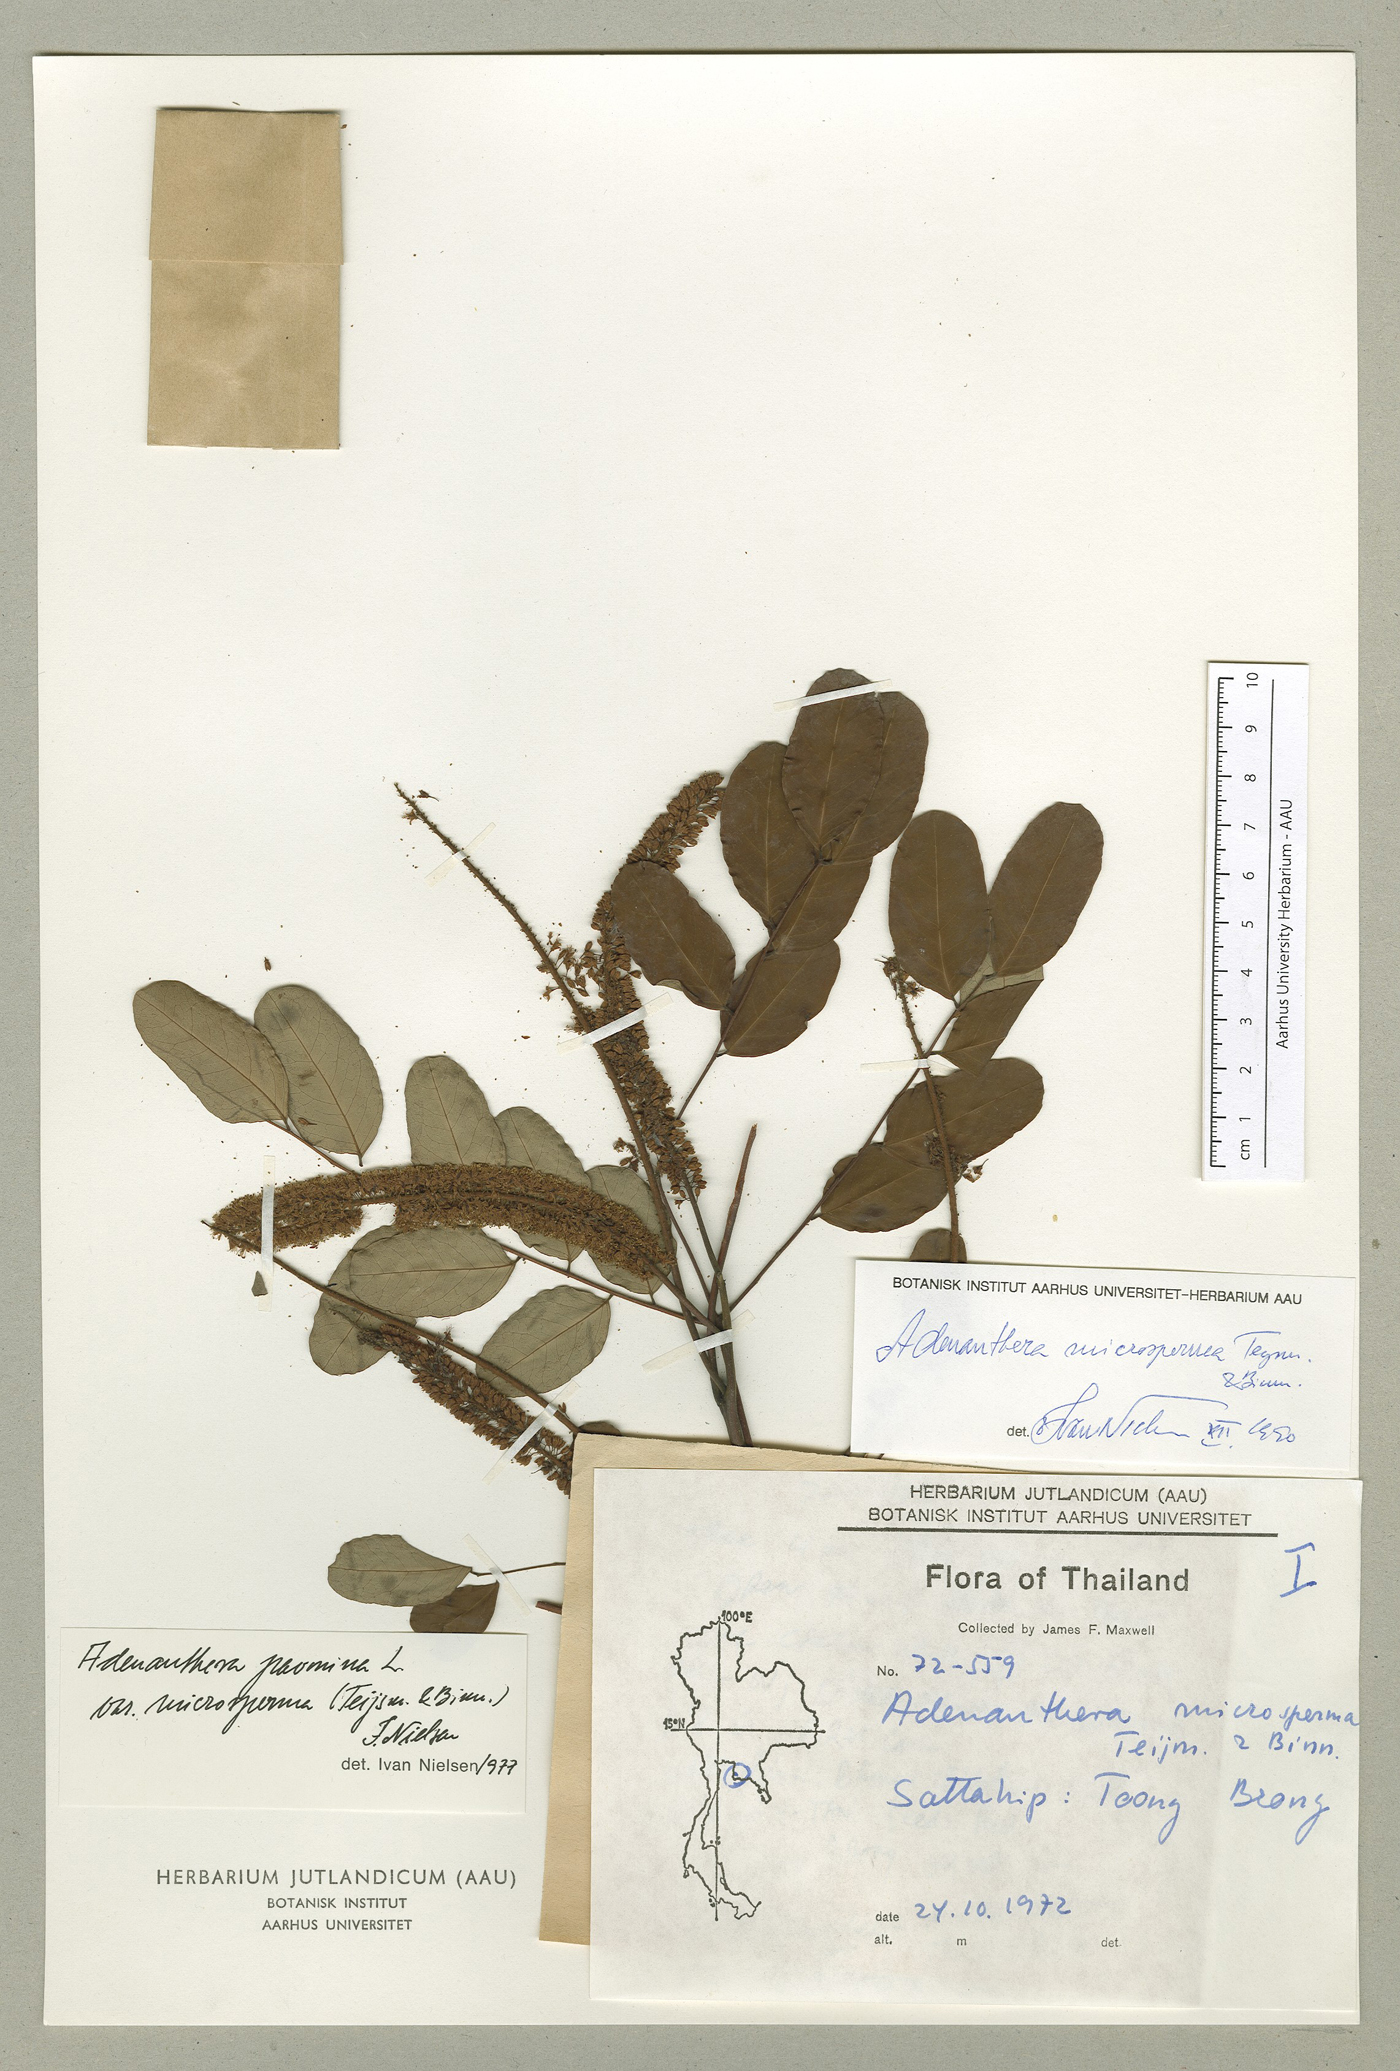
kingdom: Plantae
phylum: Tracheophyta
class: Magnoliopsida
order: Fabales
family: Fabaceae
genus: Adenanthera
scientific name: Adenanthera microsperma
